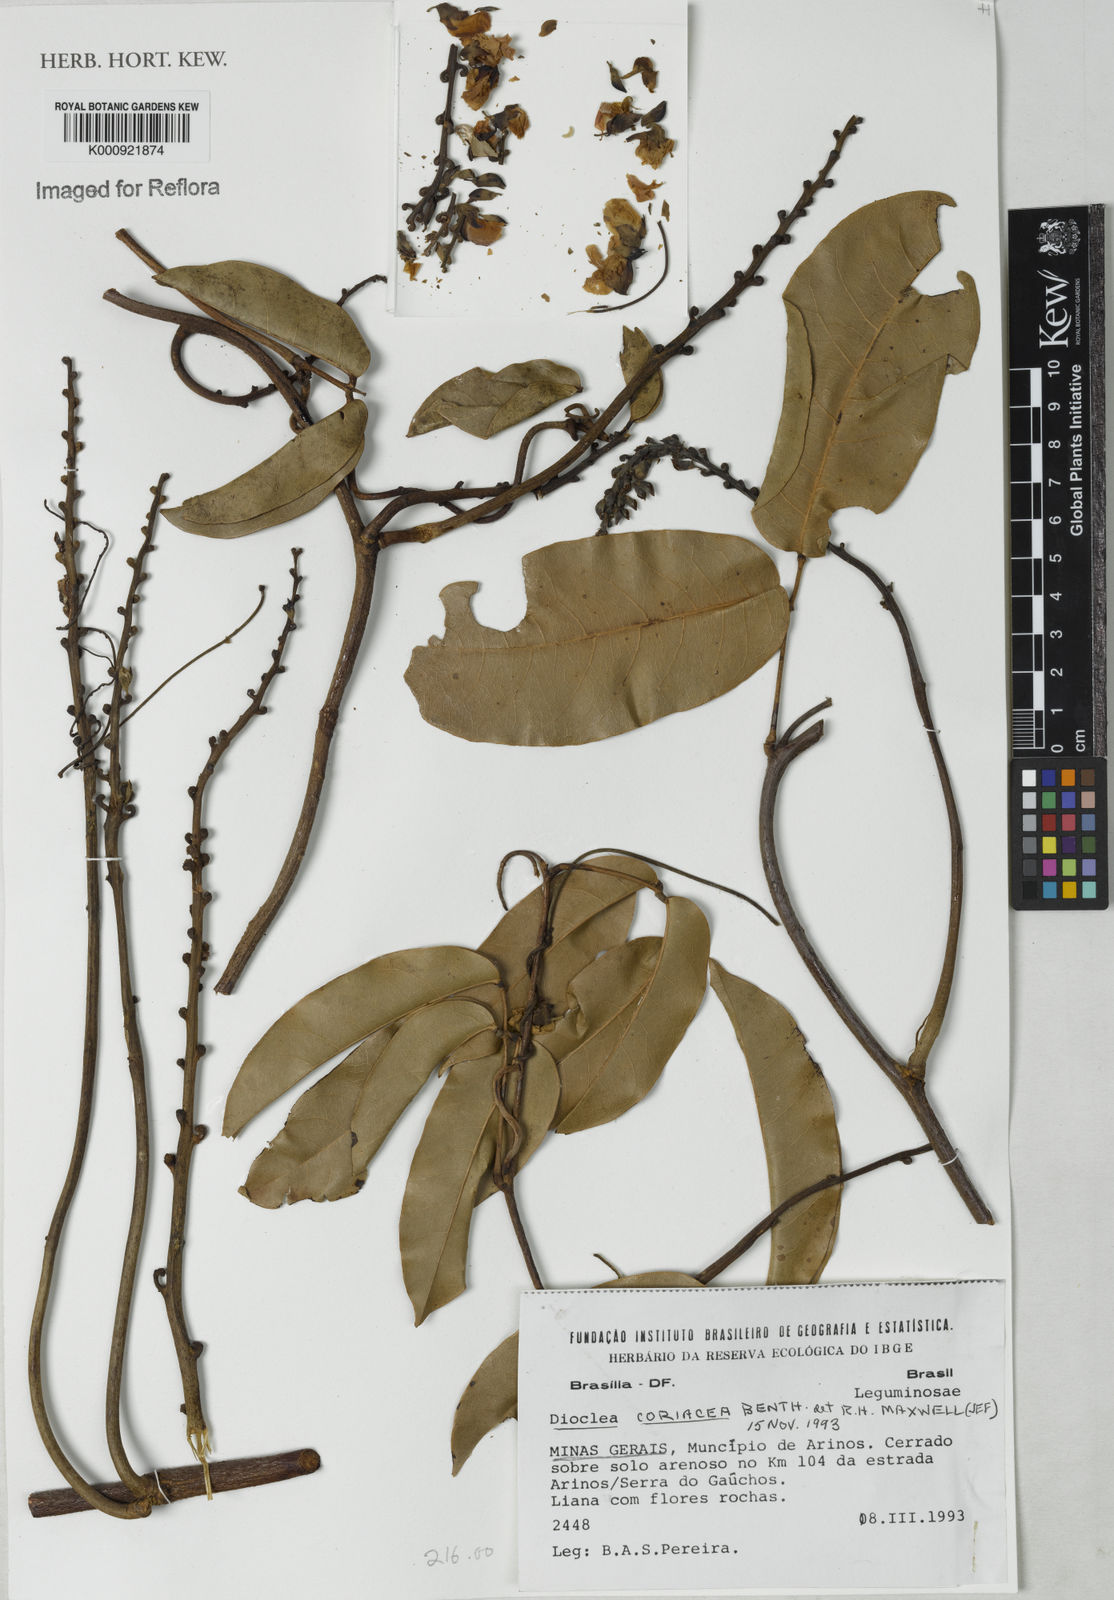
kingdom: Plantae
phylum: Tracheophyta
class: Magnoliopsida
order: Fabales
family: Fabaceae
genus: Macropsychanthus
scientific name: Macropsychanthus coriaceus
